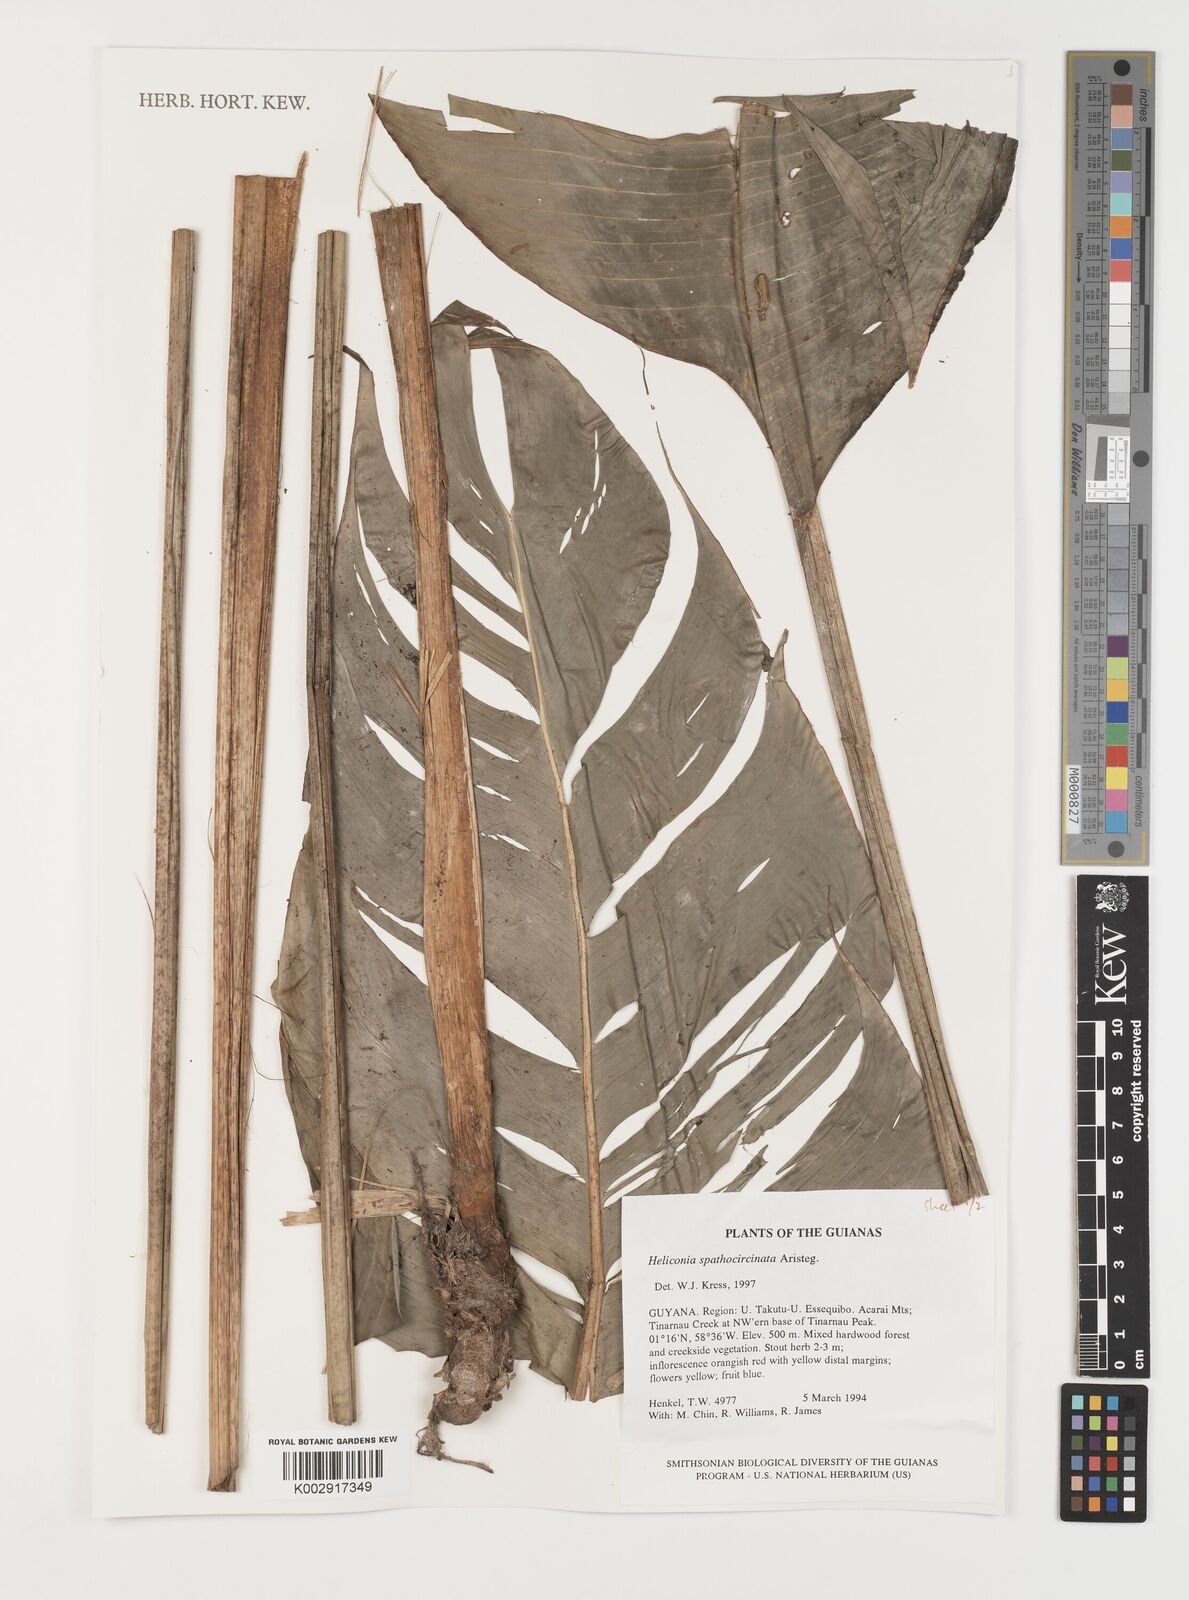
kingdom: Plantae
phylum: Tracheophyta
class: Liliopsida
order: Zingiberales
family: Heliconiaceae
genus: Heliconia
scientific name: Heliconia spathocircinata
